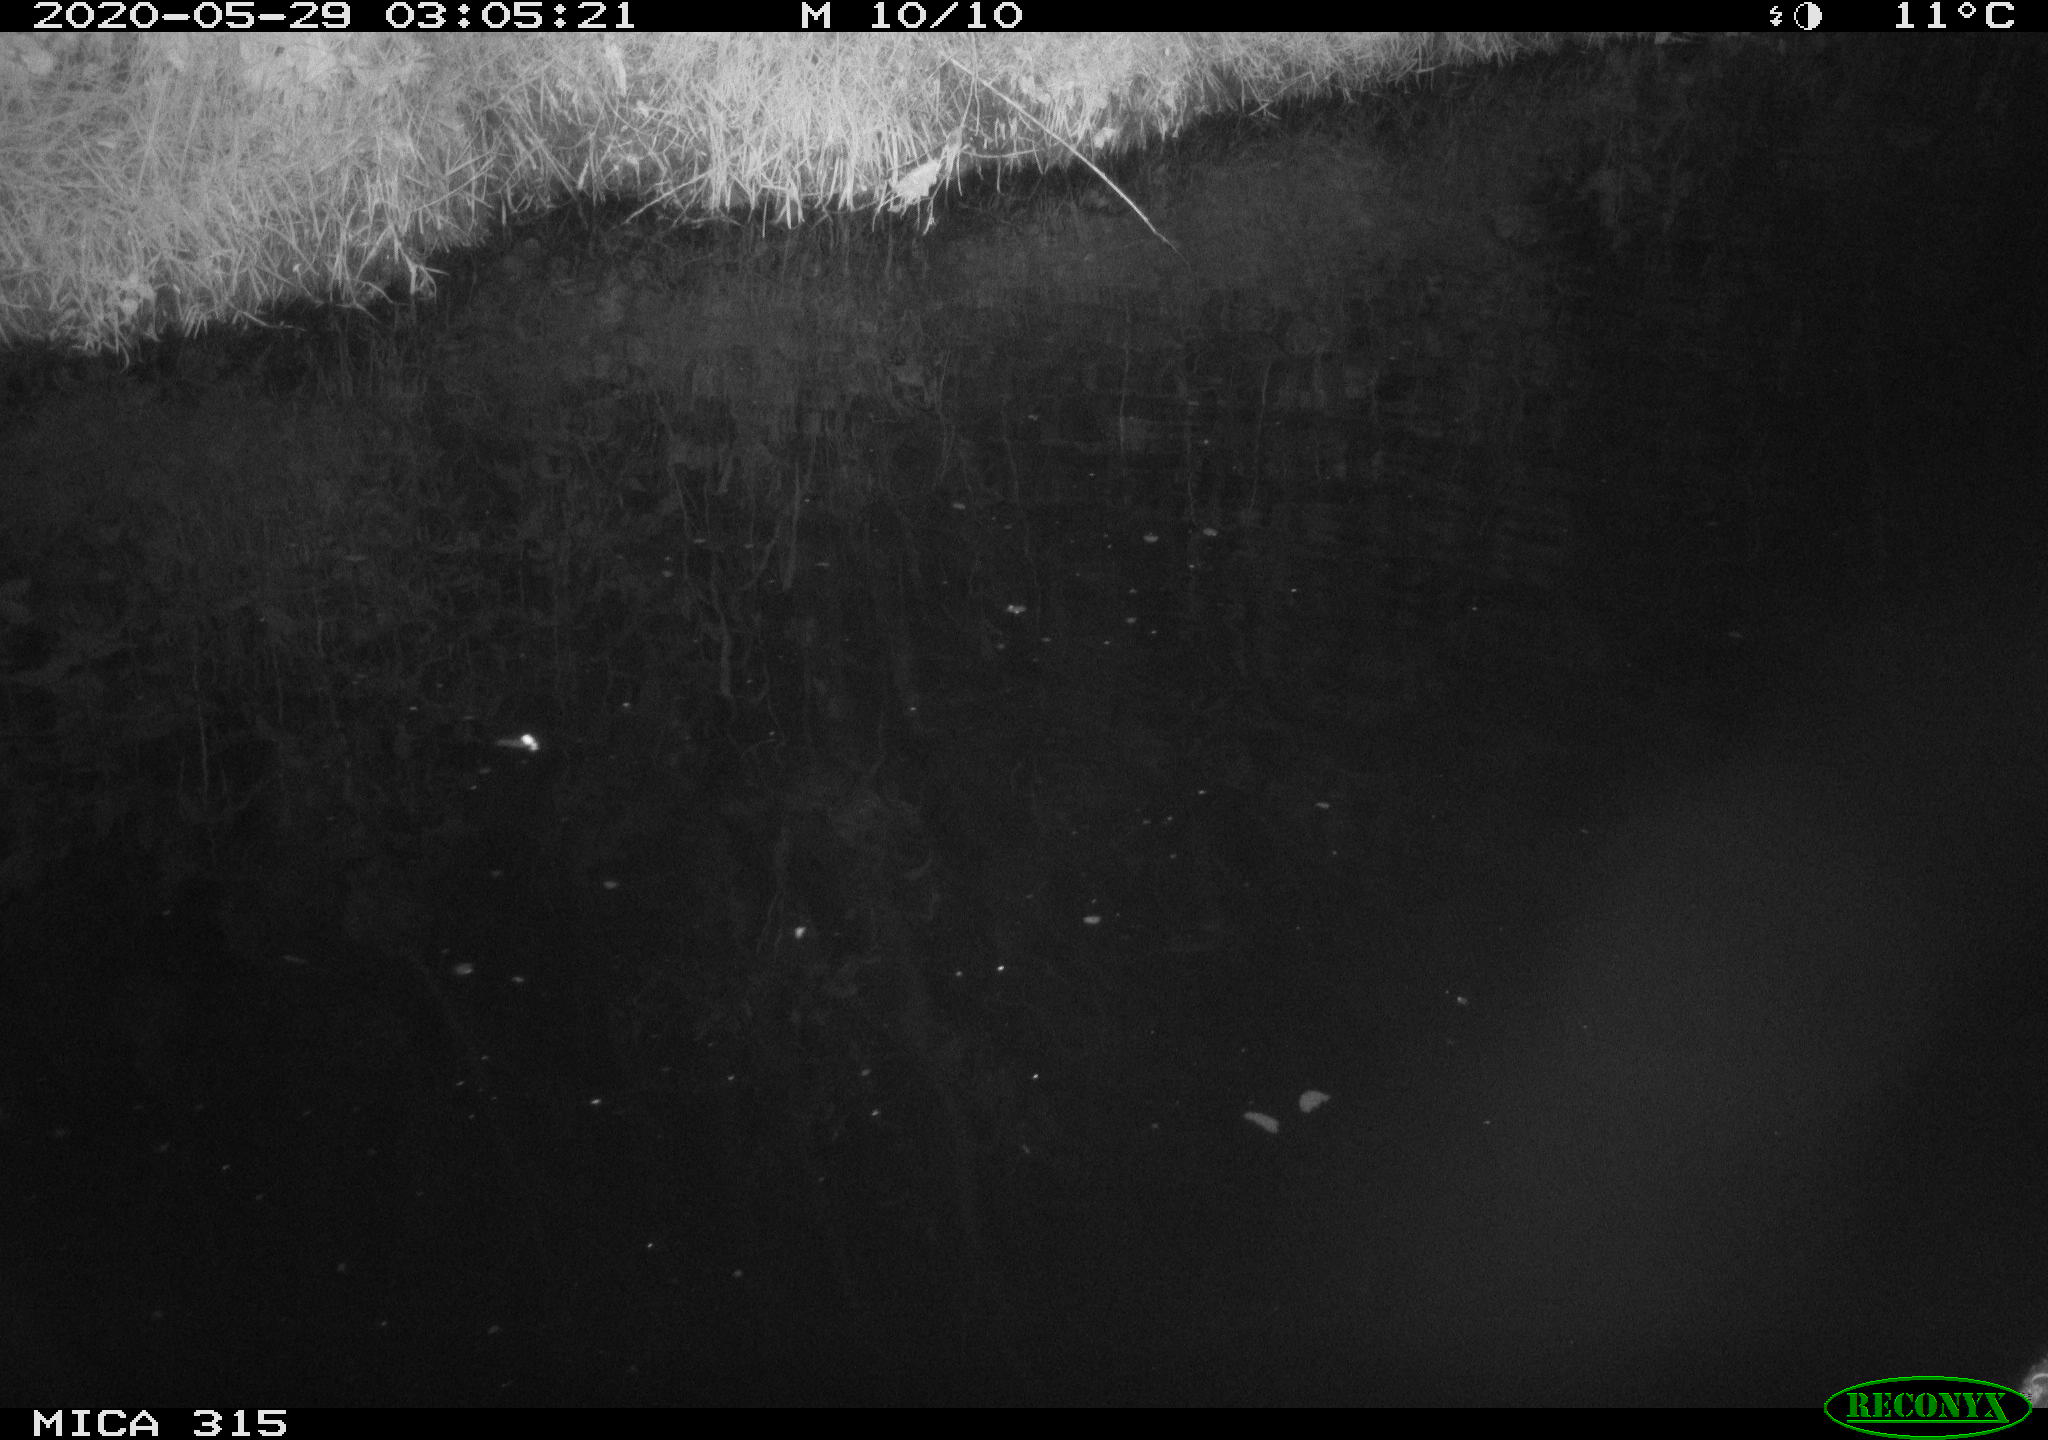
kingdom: Animalia
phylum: Chordata
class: Aves
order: Anseriformes
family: Anatidae
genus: Anas
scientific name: Anas platyrhynchos
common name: Mallard
